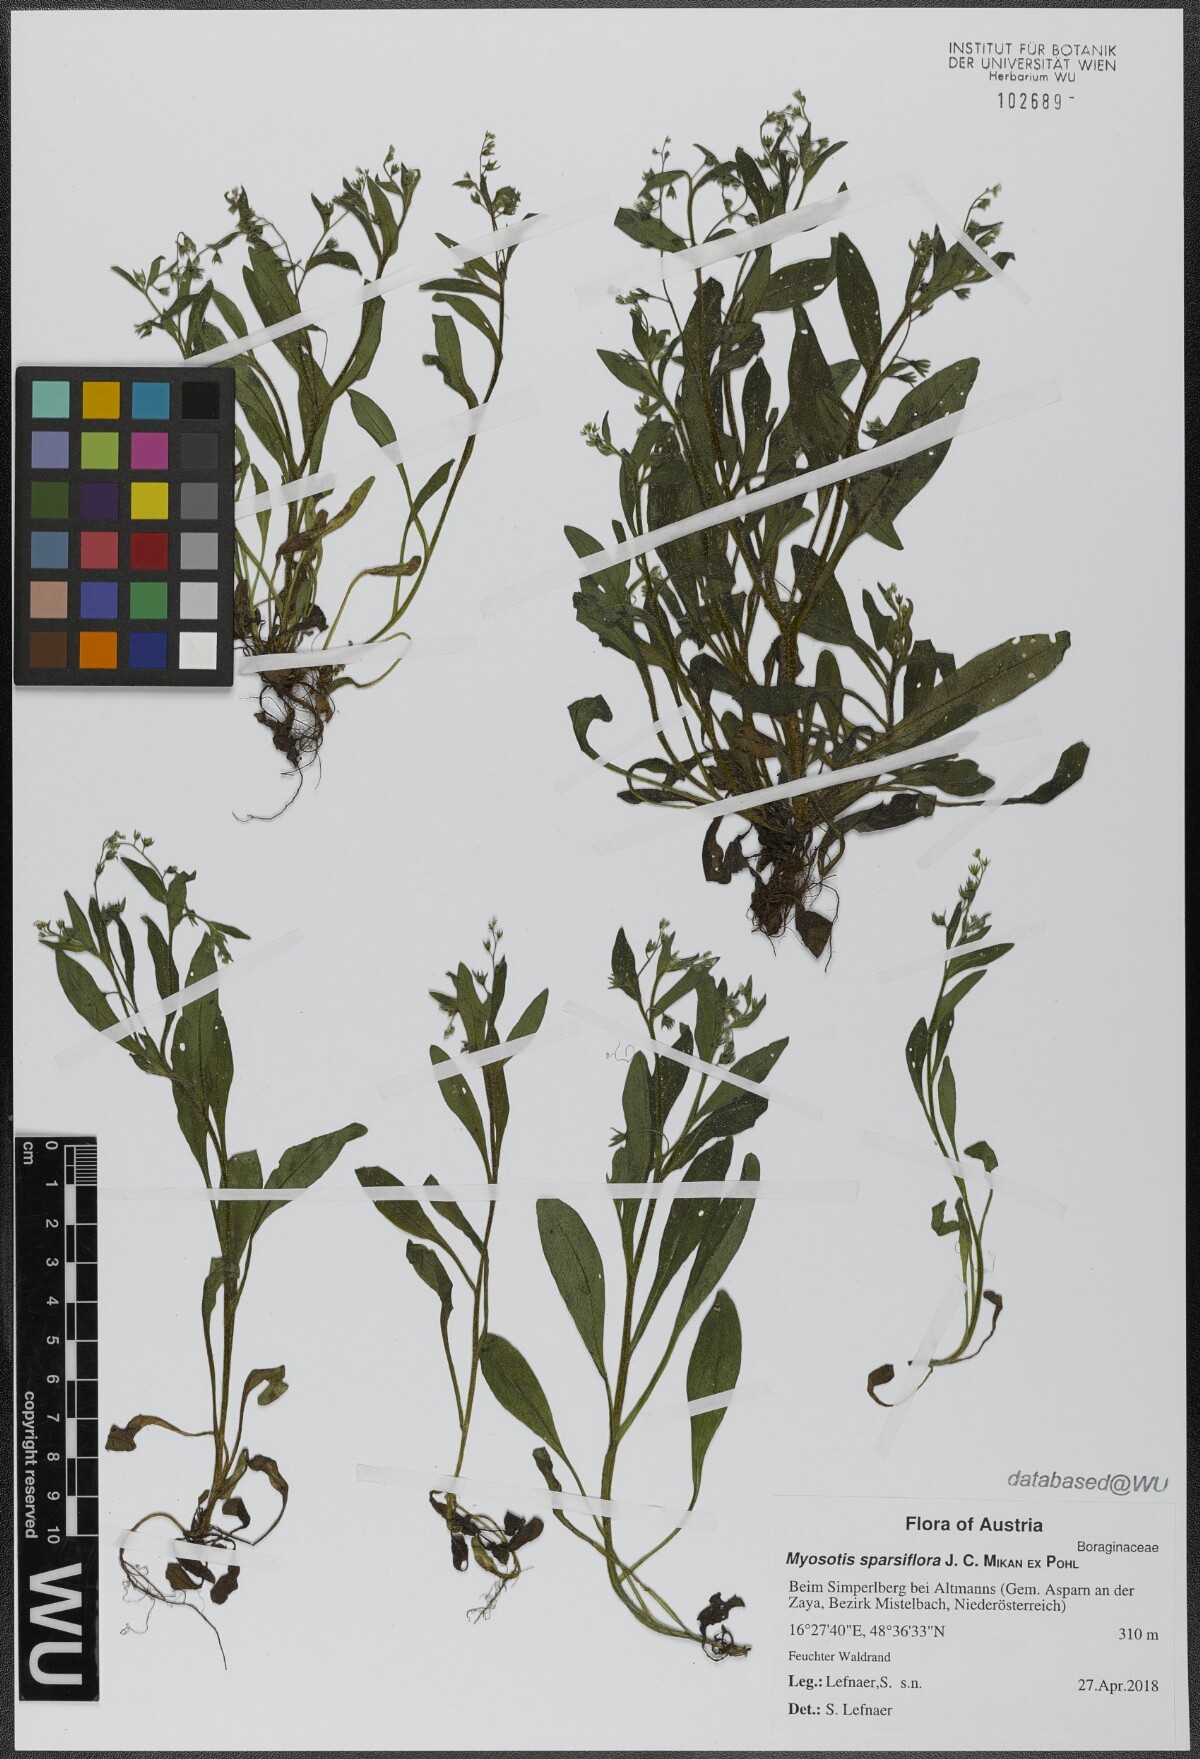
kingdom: Plantae
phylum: Tracheophyta
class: Magnoliopsida
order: Boraginales
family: Boraginaceae
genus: Myosotis
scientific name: Myosotis sparsiflora
